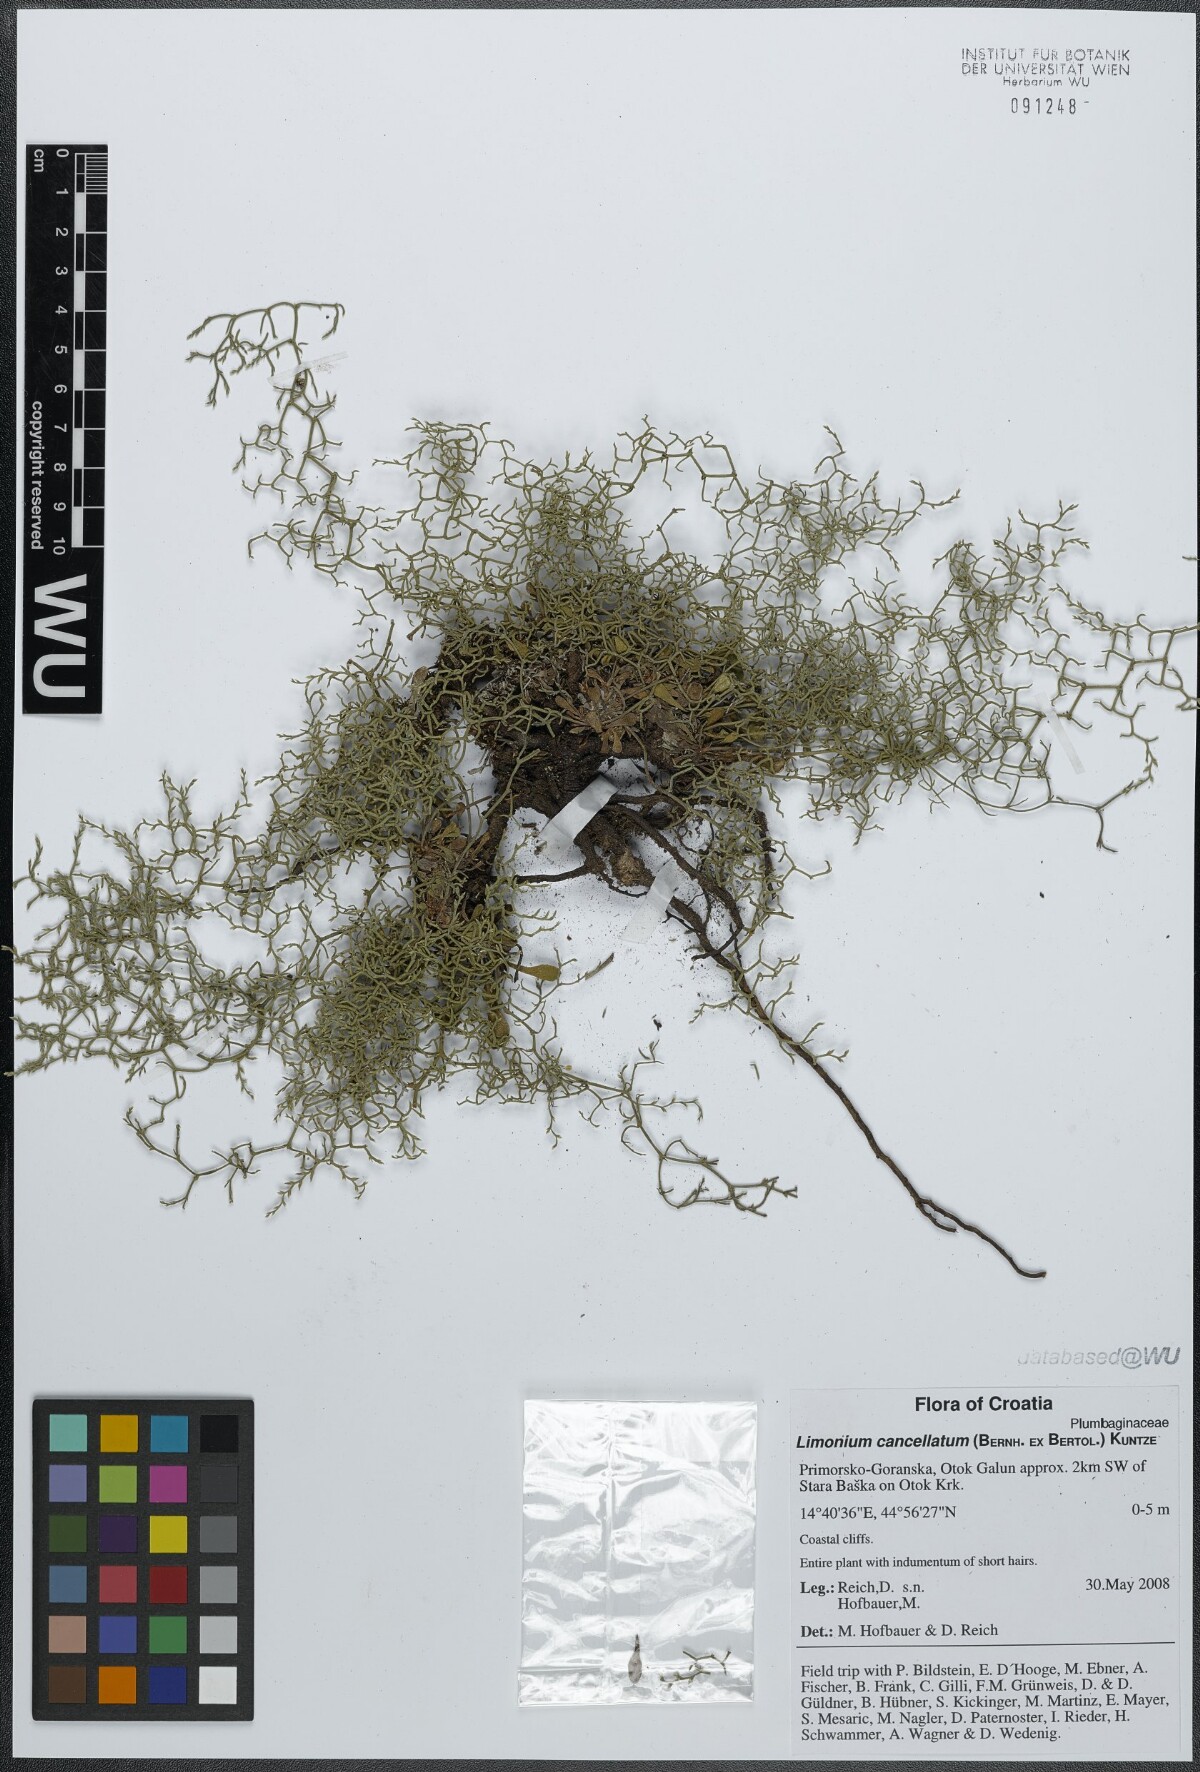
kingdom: Plantae
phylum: Tracheophyta
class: Magnoliopsida
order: Caryophyllales
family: Plumbaginaceae
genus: Limonium
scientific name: Limonium cancellatum
